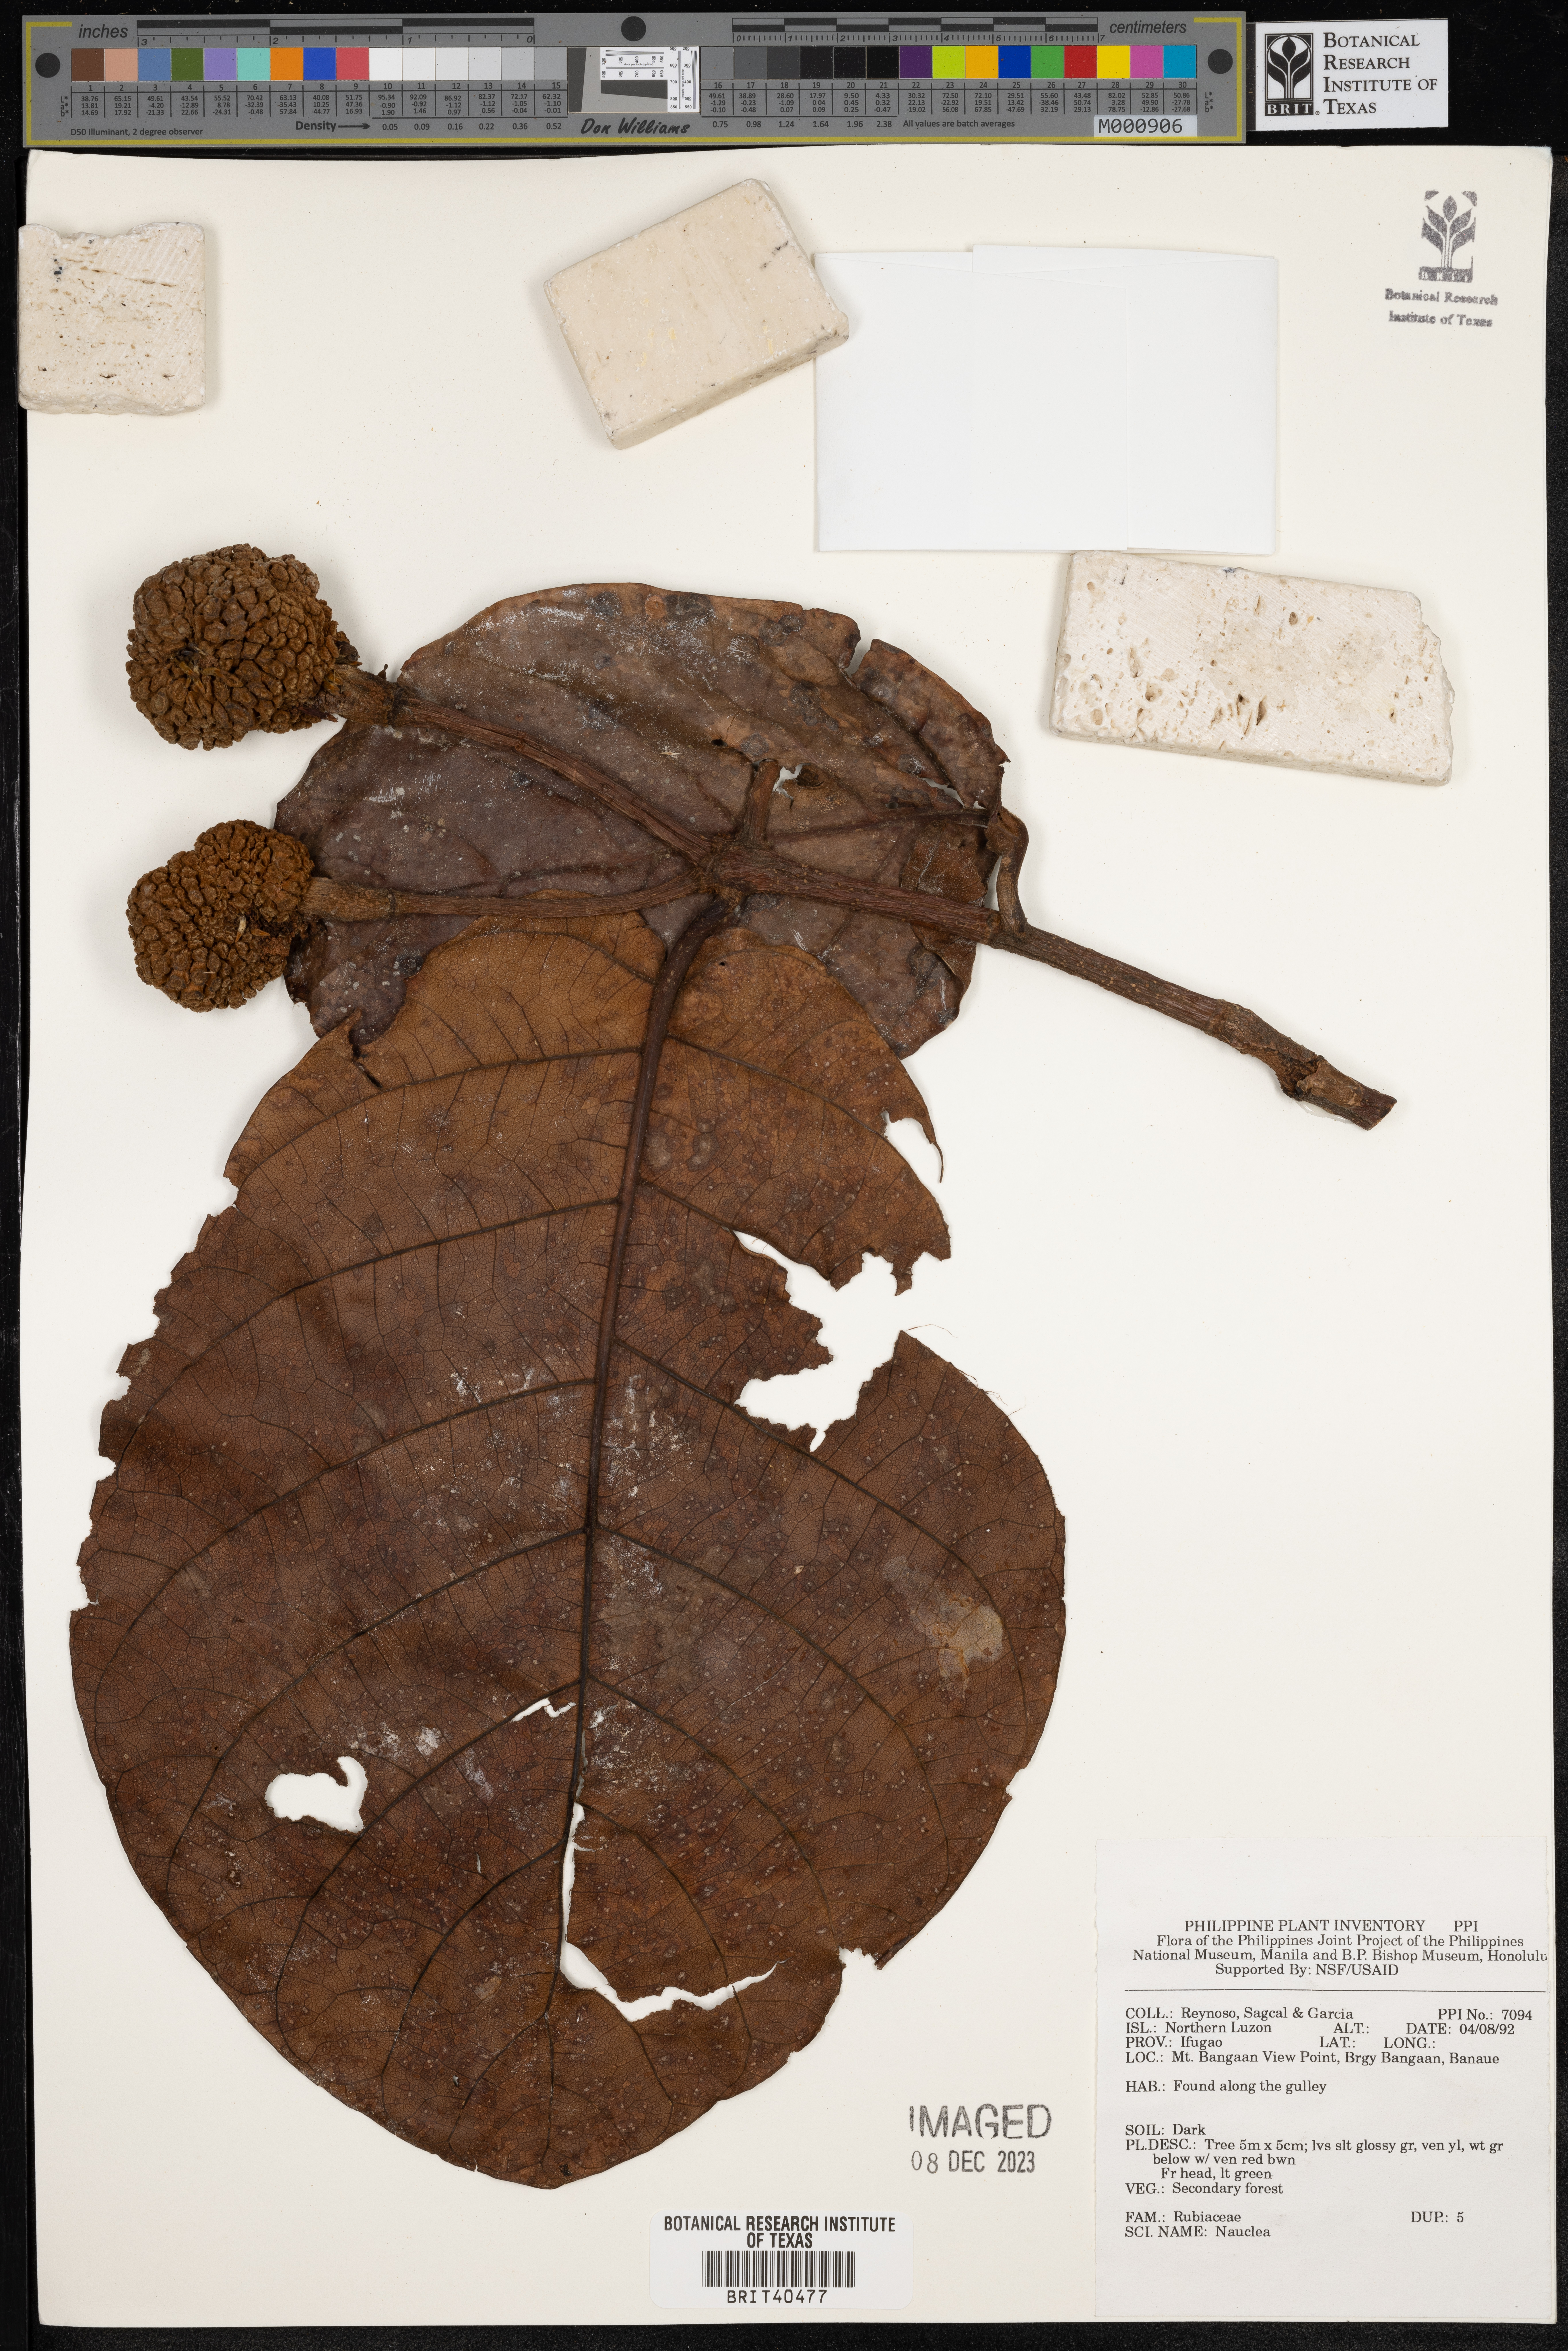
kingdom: Plantae
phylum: Tracheophyta
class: Magnoliopsida
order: Gentianales
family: Rubiaceae
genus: Nauclea
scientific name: Nauclea
